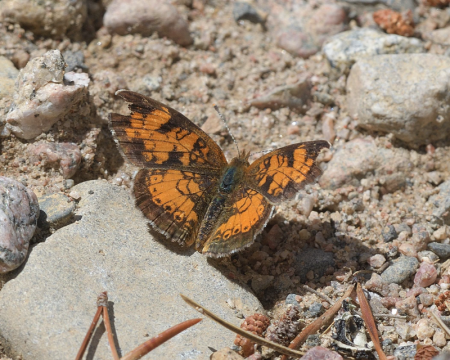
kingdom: Animalia
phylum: Arthropoda
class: Insecta
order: Lepidoptera
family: Nymphalidae
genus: Phyciodes
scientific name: Phyciodes tharos
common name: Northern Crescent
